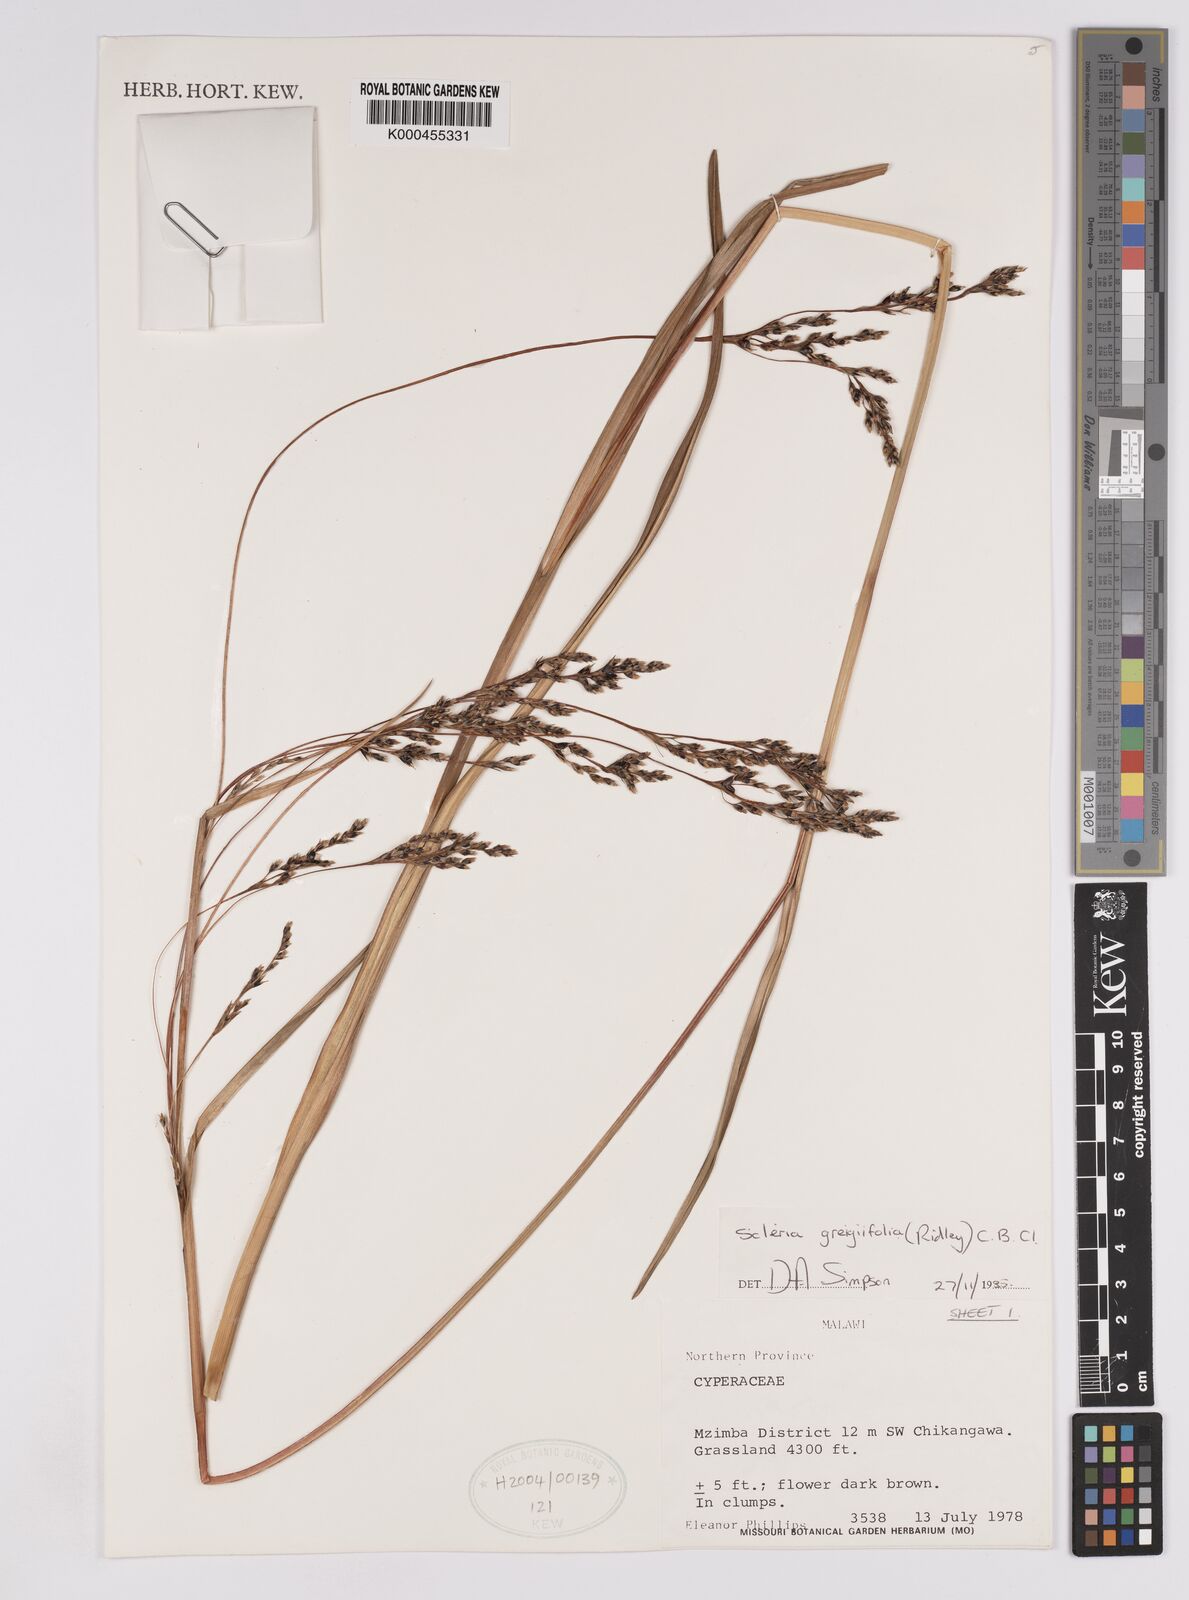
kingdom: Plantae
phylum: Tracheophyta
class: Liliopsida
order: Poales
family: Cyperaceae
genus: Scleria
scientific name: Scleria greigiifolia
